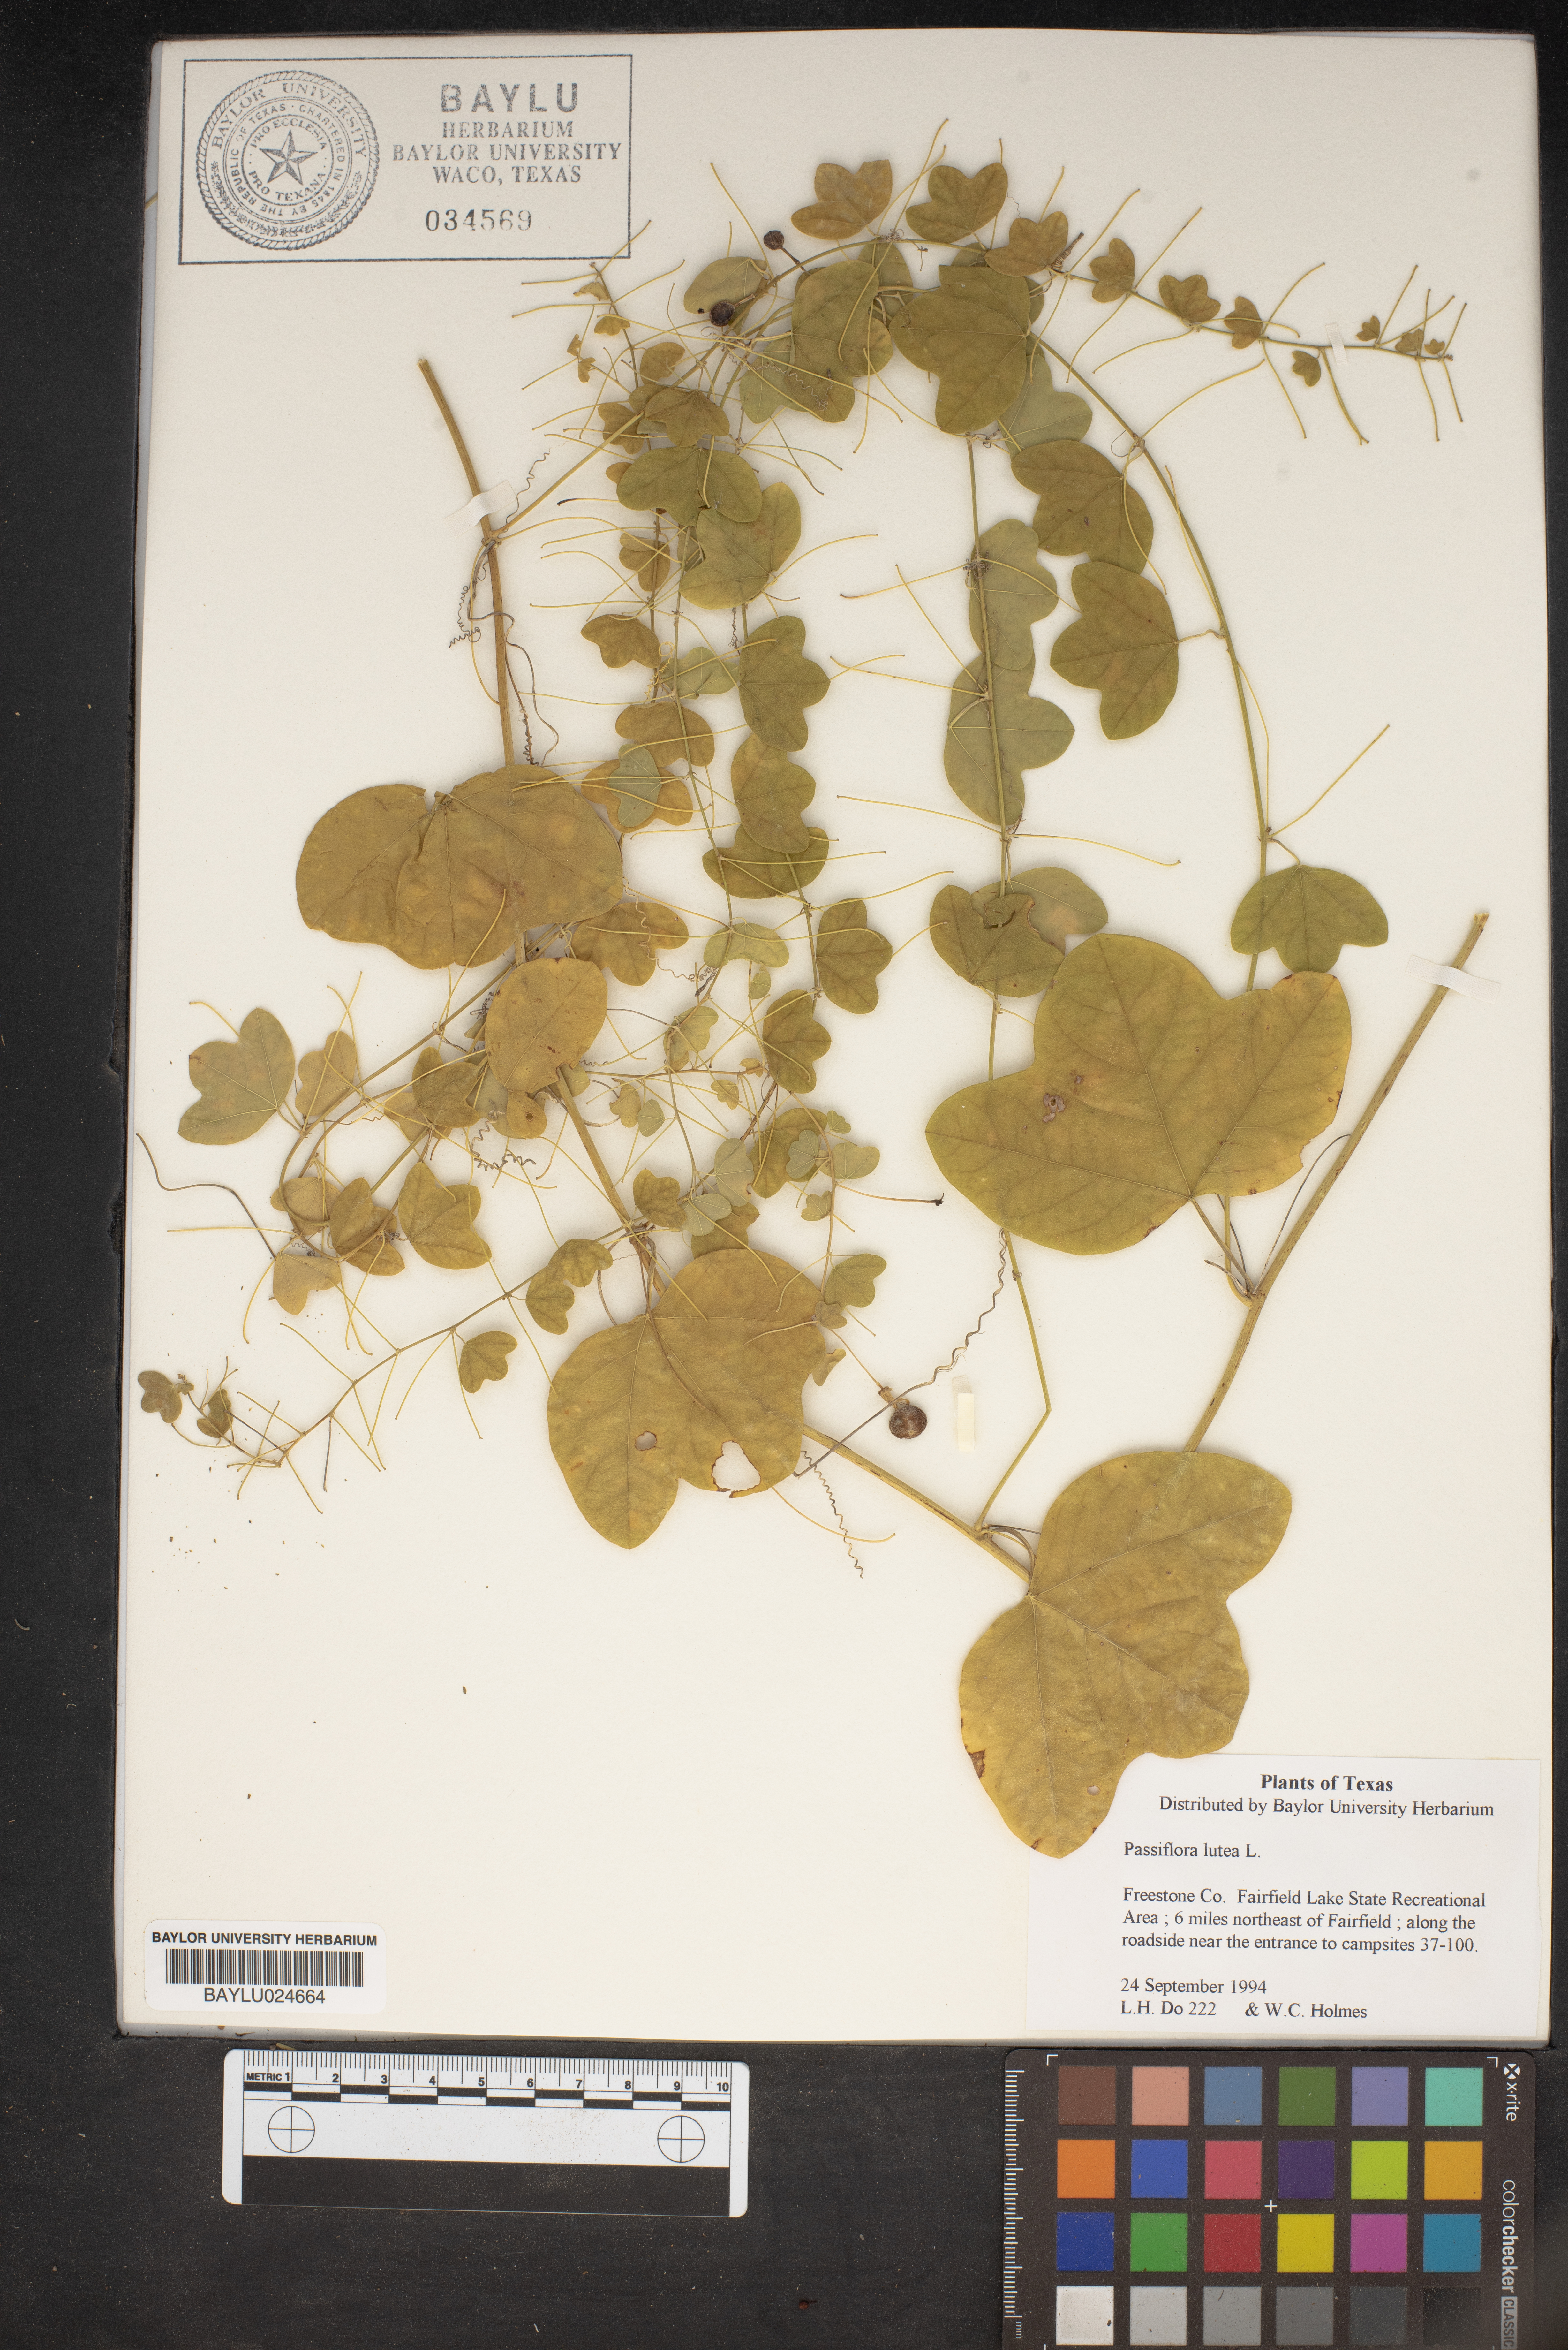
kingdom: Plantae
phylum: Tracheophyta
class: Magnoliopsida
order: Malpighiales
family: Passifloraceae
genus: Passiflora
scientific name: Passiflora lutea
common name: Yellow passionflower
